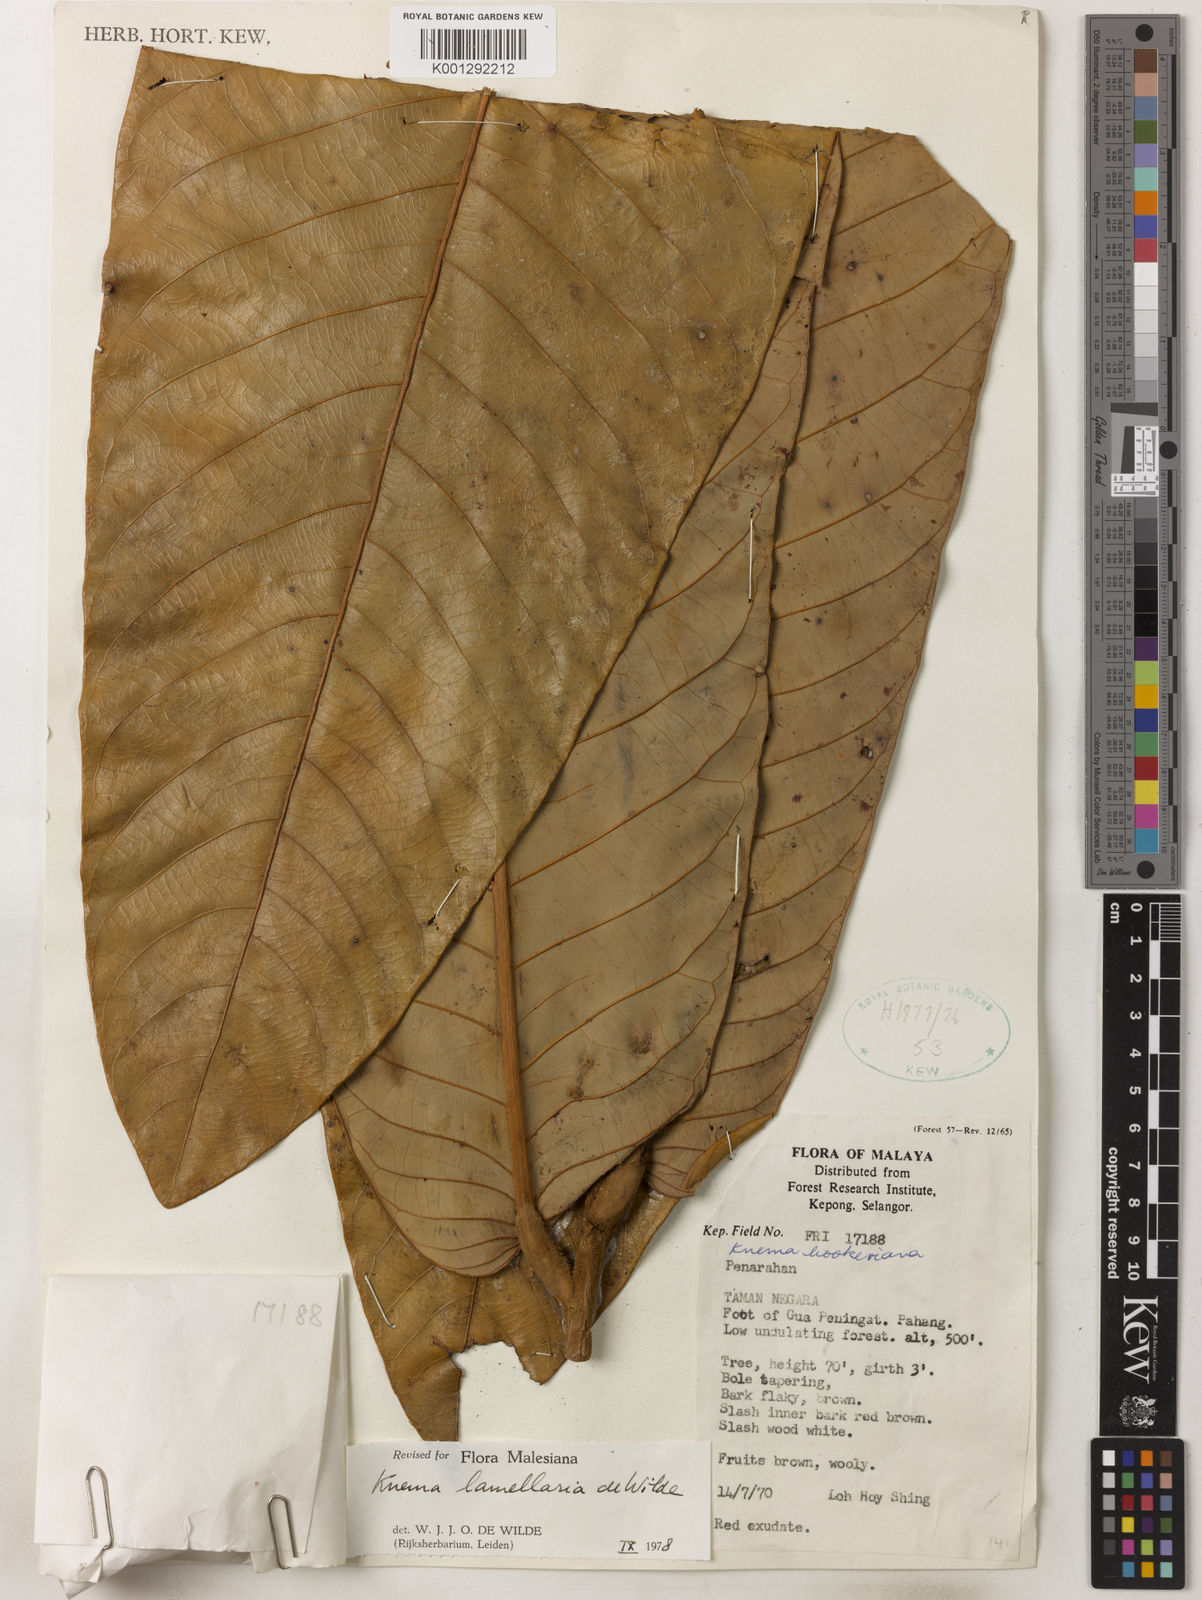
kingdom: Plantae
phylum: Tracheophyta
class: Magnoliopsida
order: Magnoliales
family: Myristicaceae
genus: Knema
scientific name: Knema lamellaria
